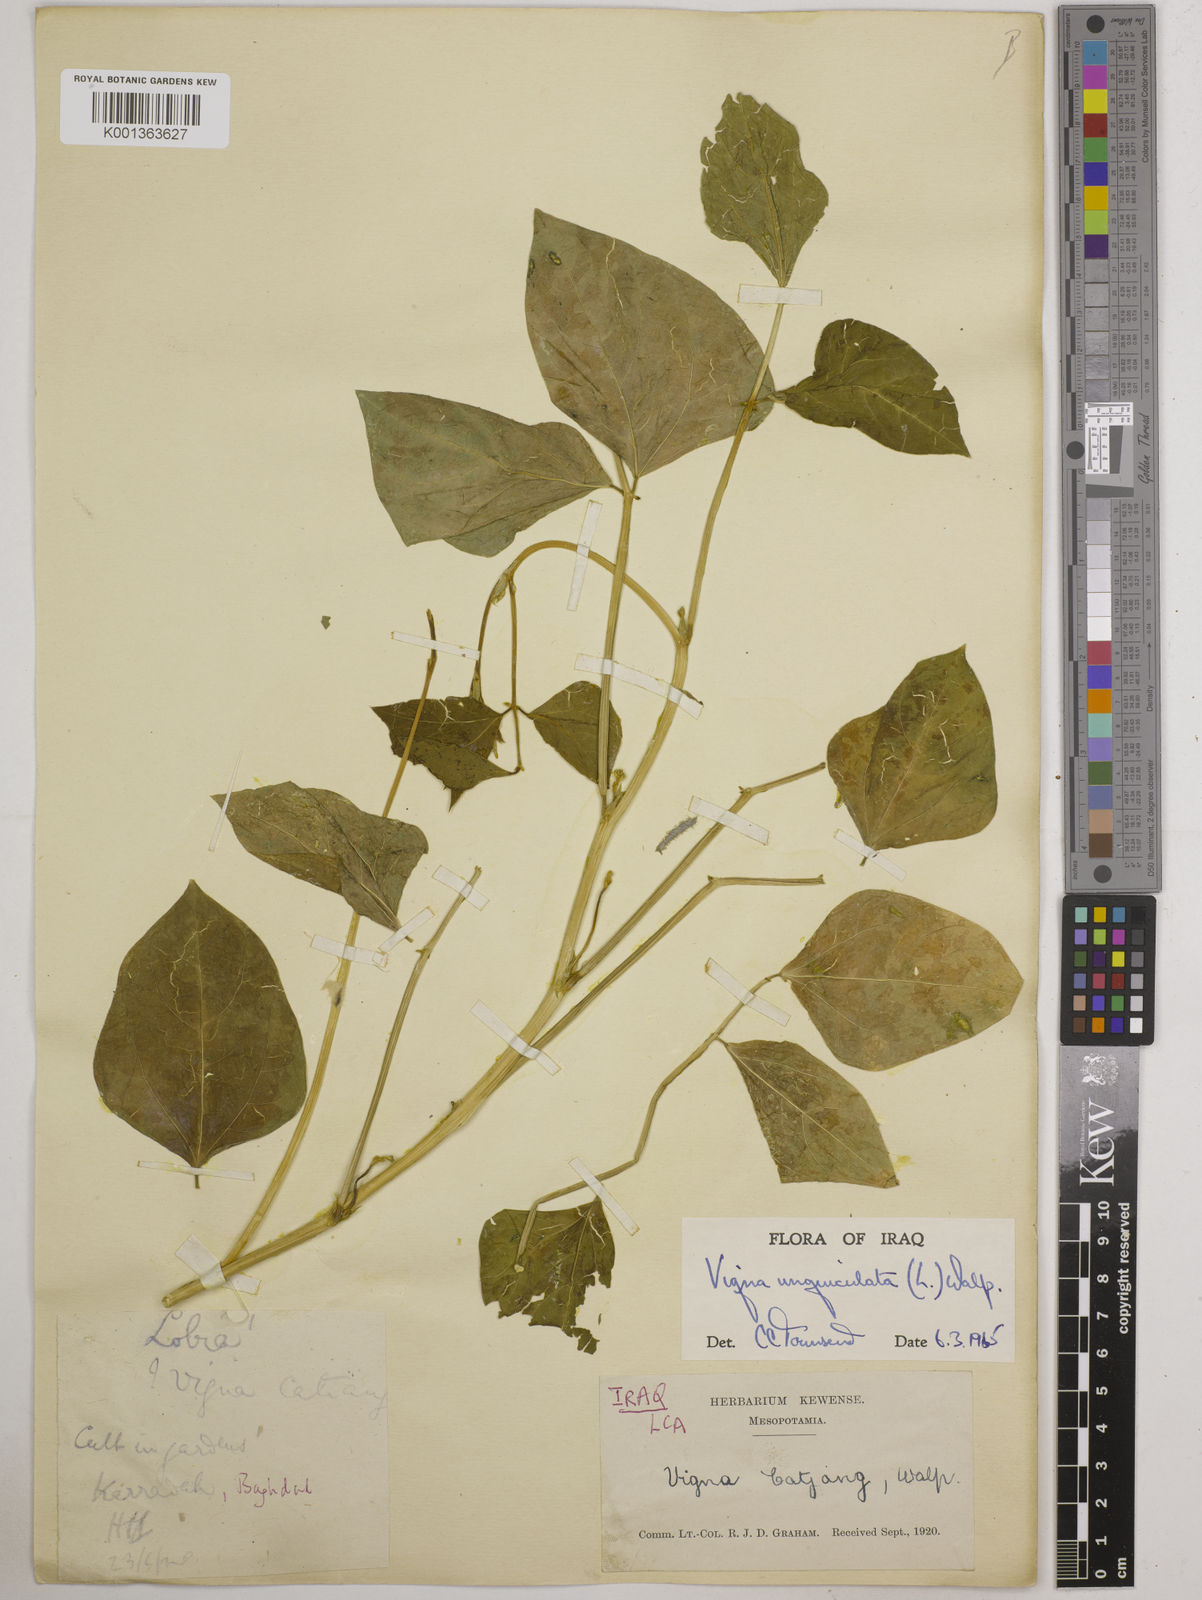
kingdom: Plantae
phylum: Tracheophyta
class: Magnoliopsida
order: Fabales
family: Fabaceae
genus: Vigna
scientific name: Vigna unguiculata
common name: Cowpea
